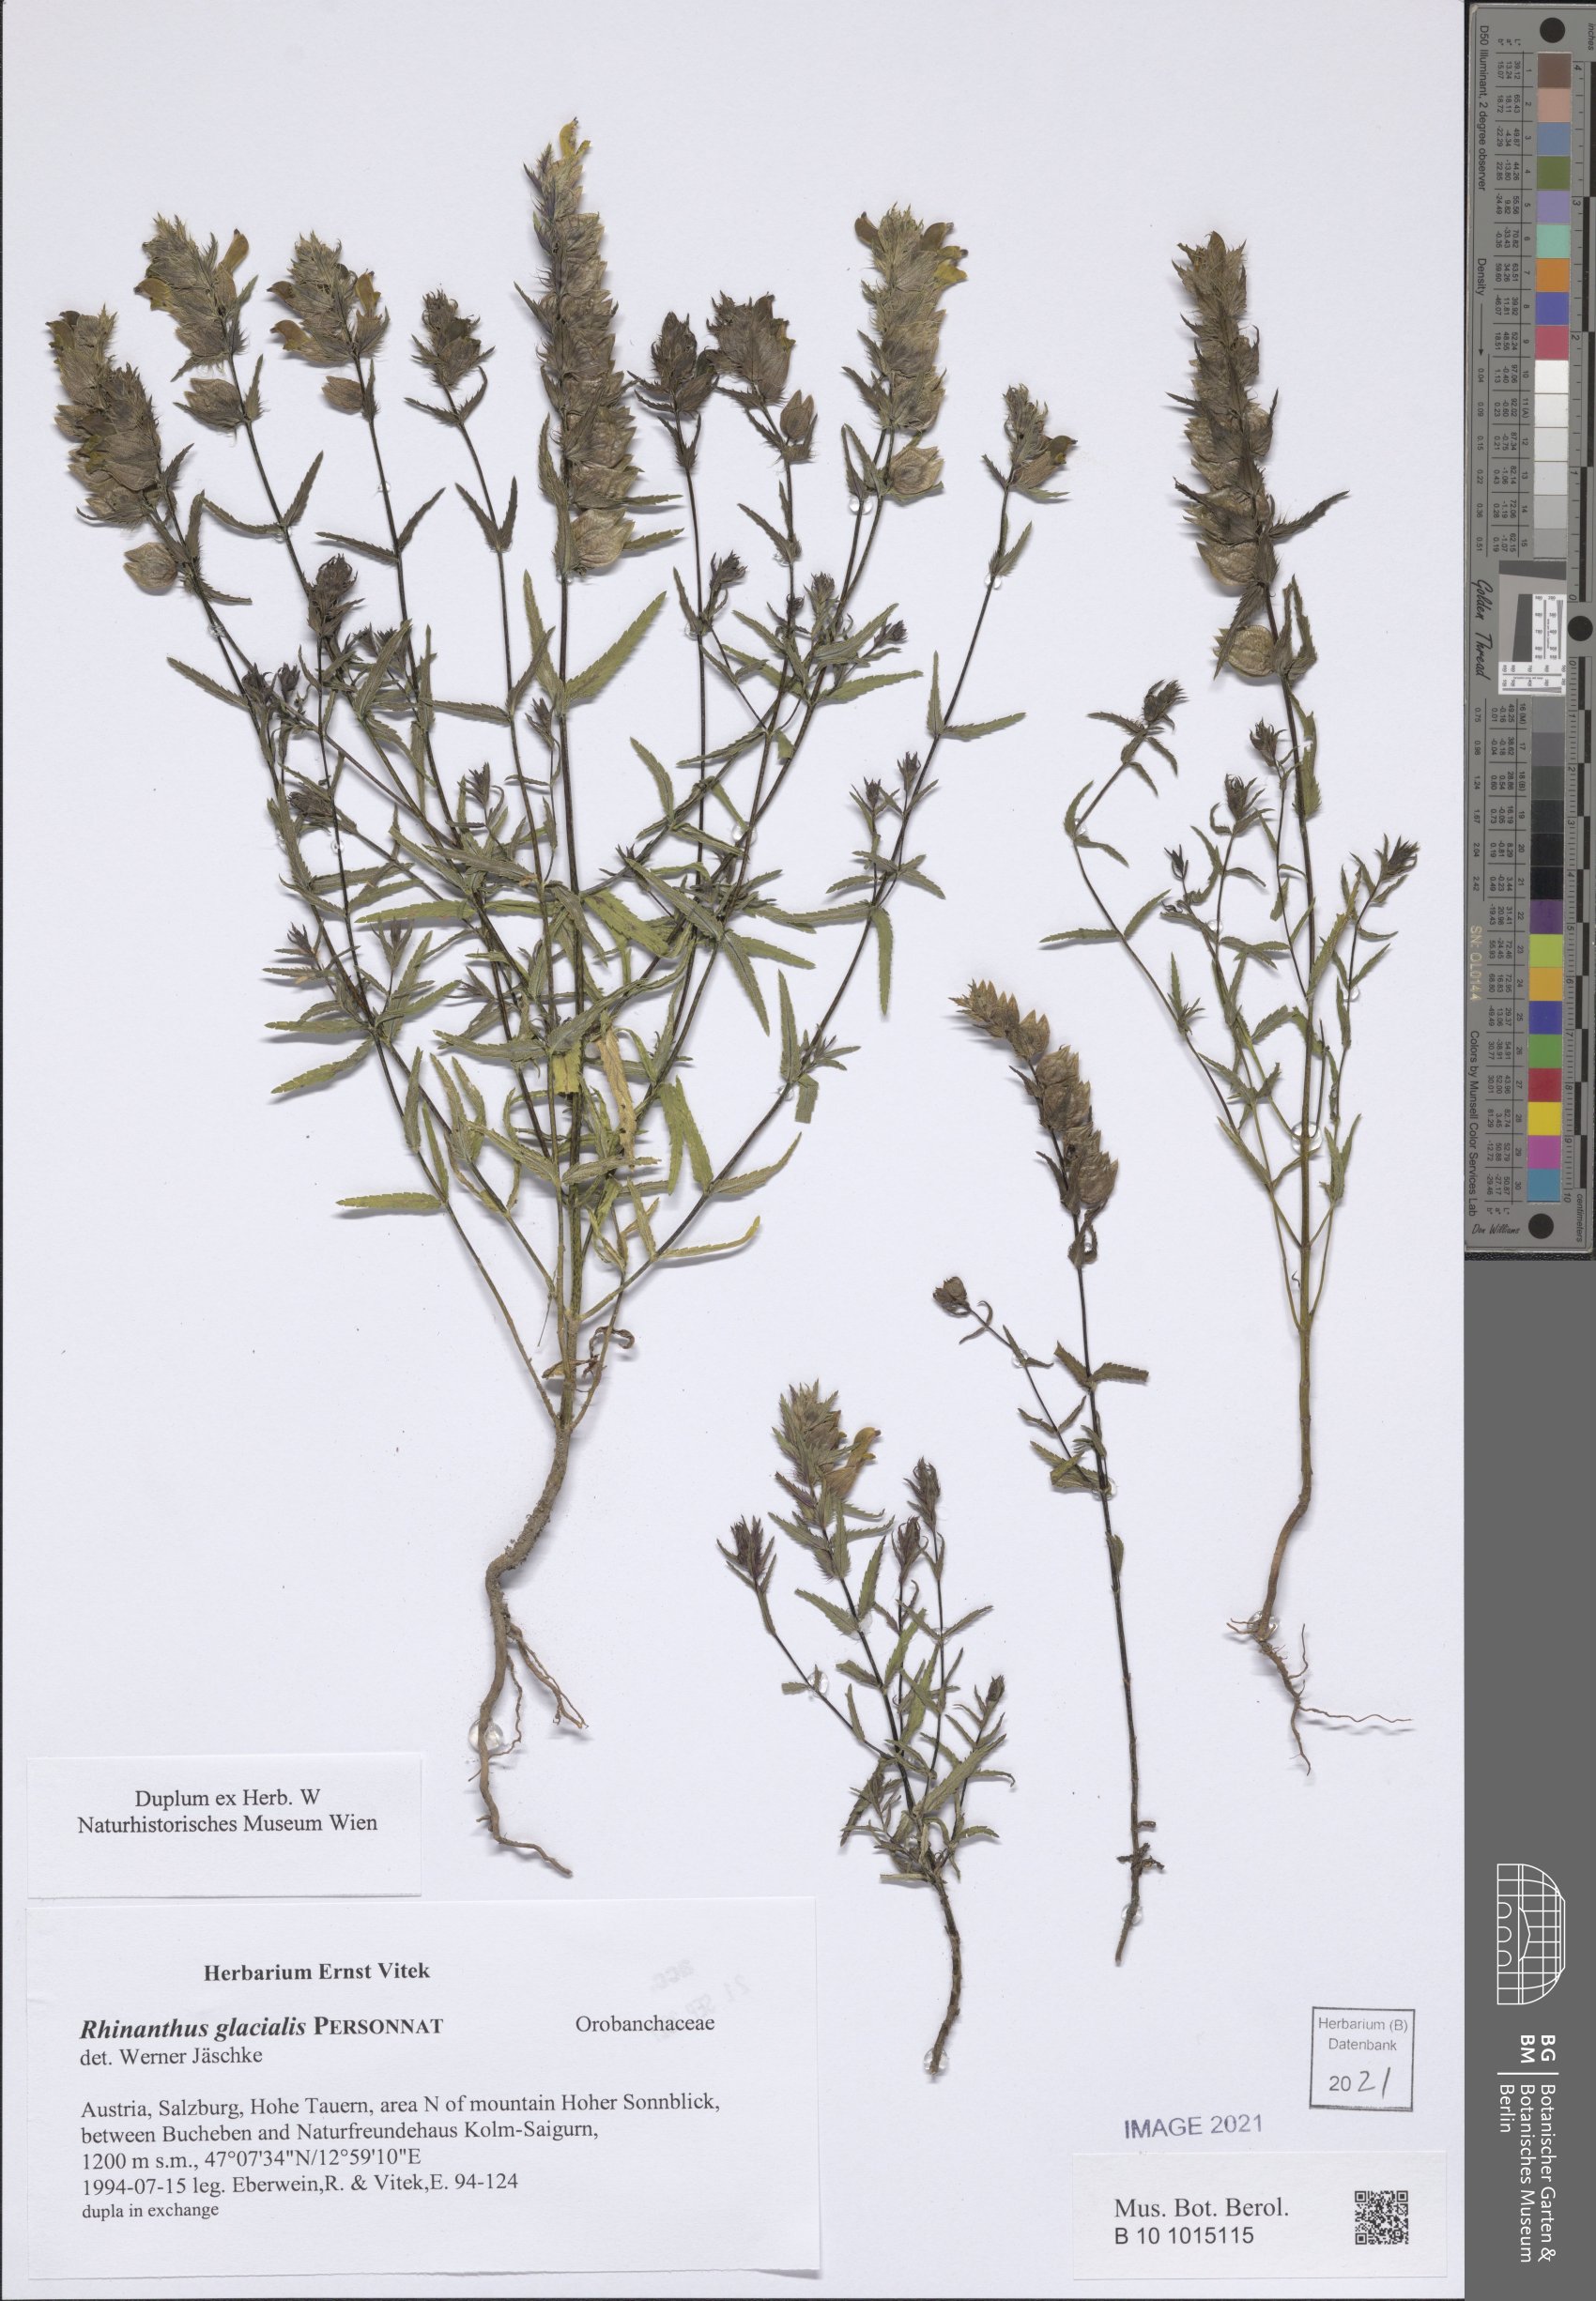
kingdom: Plantae
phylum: Tracheophyta
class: Magnoliopsida
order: Lamiales
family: Orobanchaceae
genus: Rhinanthus
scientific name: Rhinanthus glacialis
